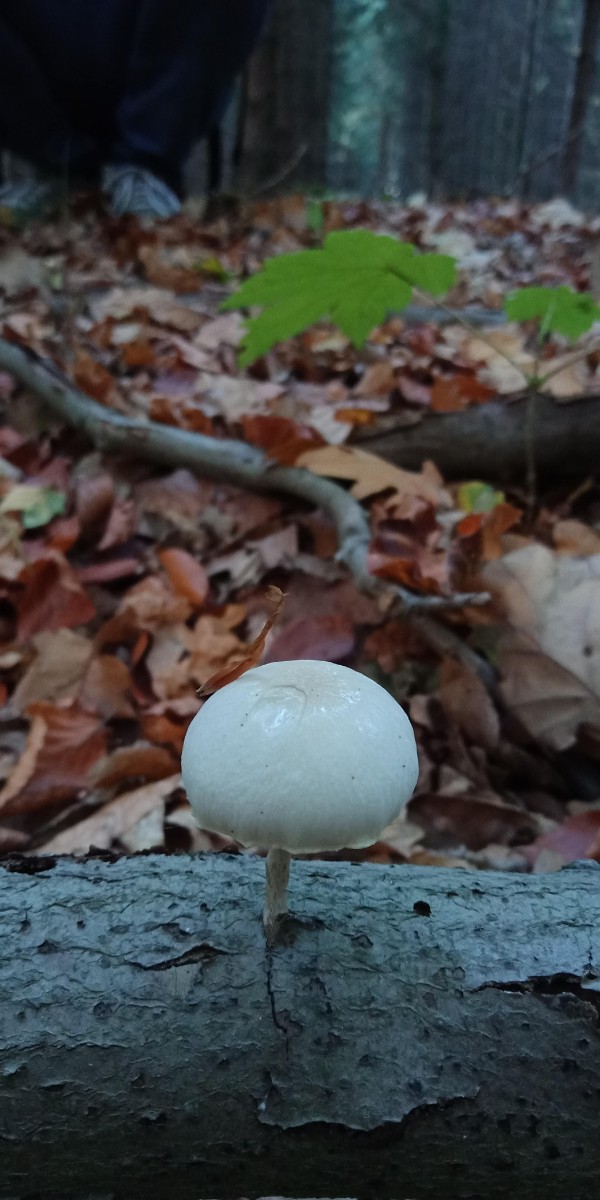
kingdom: Fungi
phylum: Basidiomycota
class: Agaricomycetes
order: Agaricales
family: Physalacriaceae
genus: Mucidula
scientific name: Mucidula mucida
